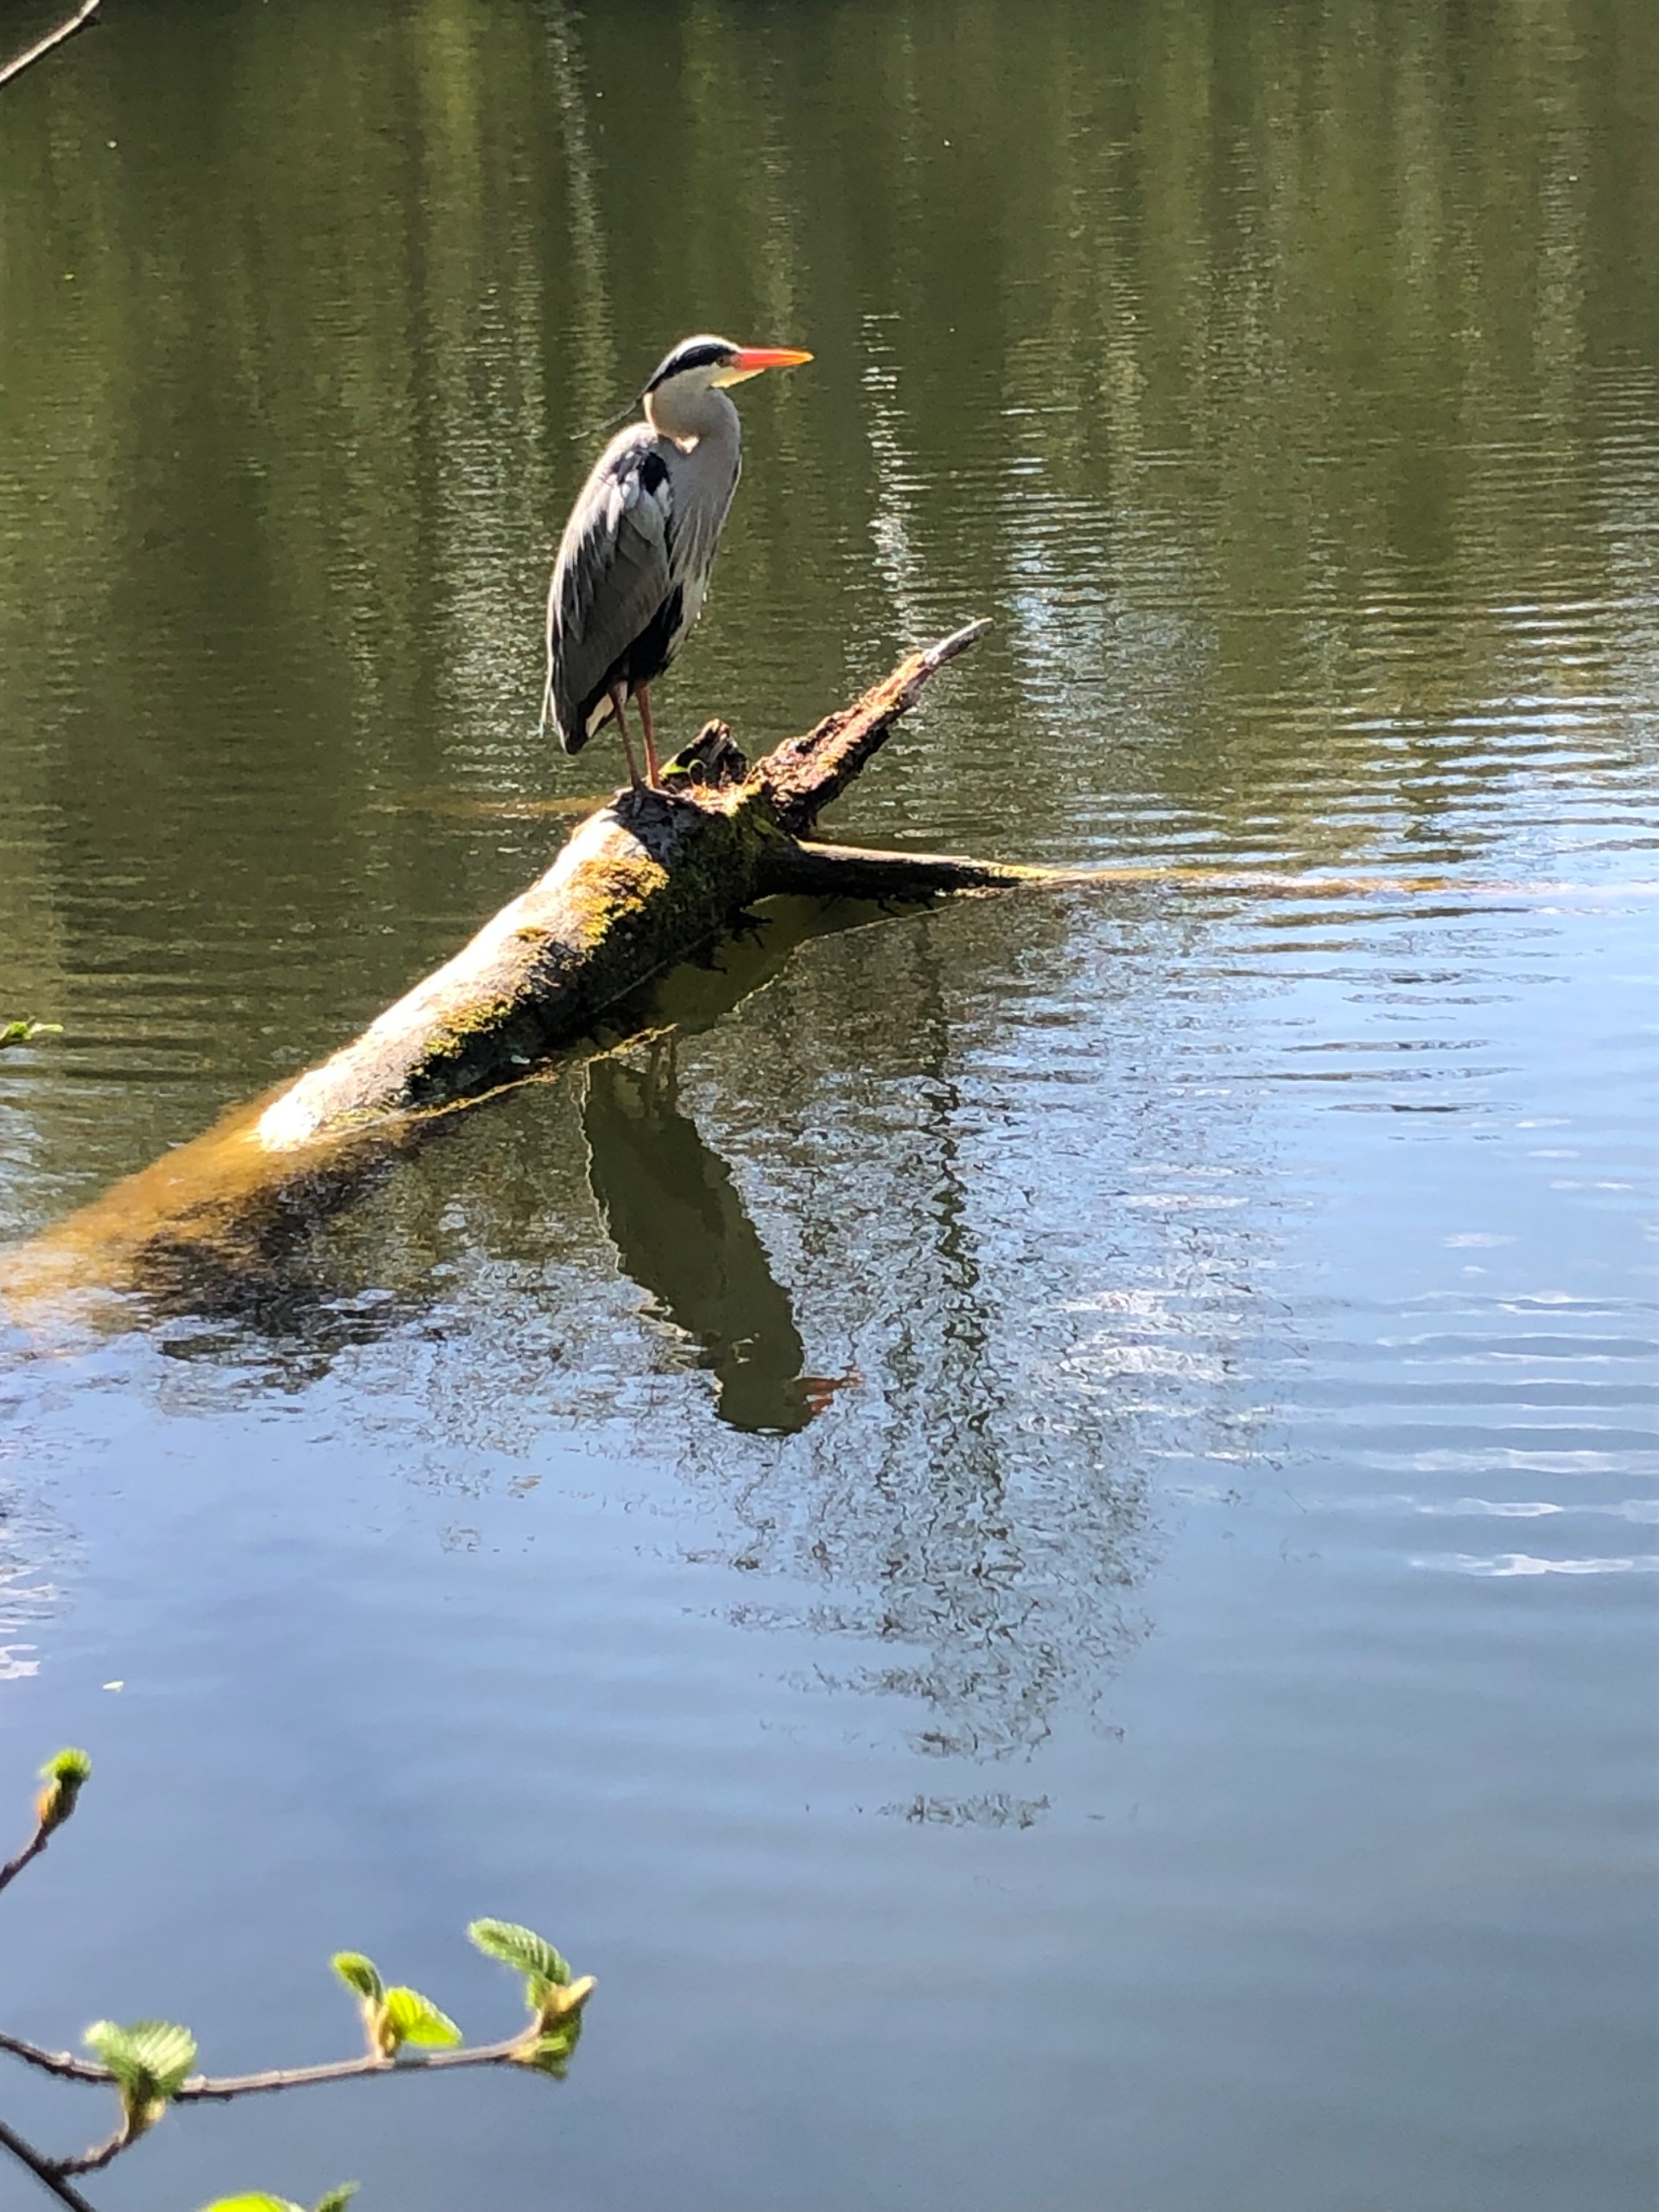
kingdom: Animalia
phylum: Chordata
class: Aves
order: Pelecaniformes
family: Ardeidae
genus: Ardea
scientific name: Ardea cinerea
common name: Fiskehejre
